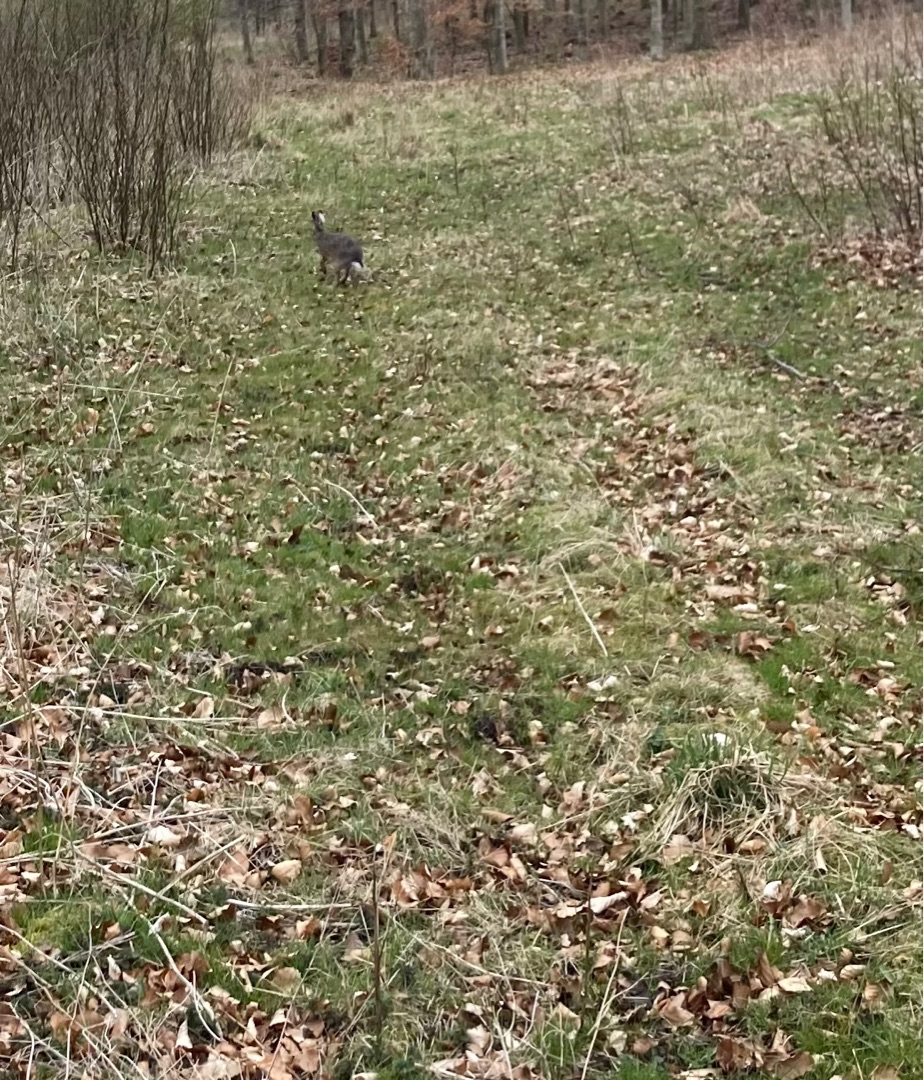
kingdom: Animalia
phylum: Chordata
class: Mammalia
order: Lagomorpha
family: Leporidae
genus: Lepus
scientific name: Lepus europaeus
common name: Hare
